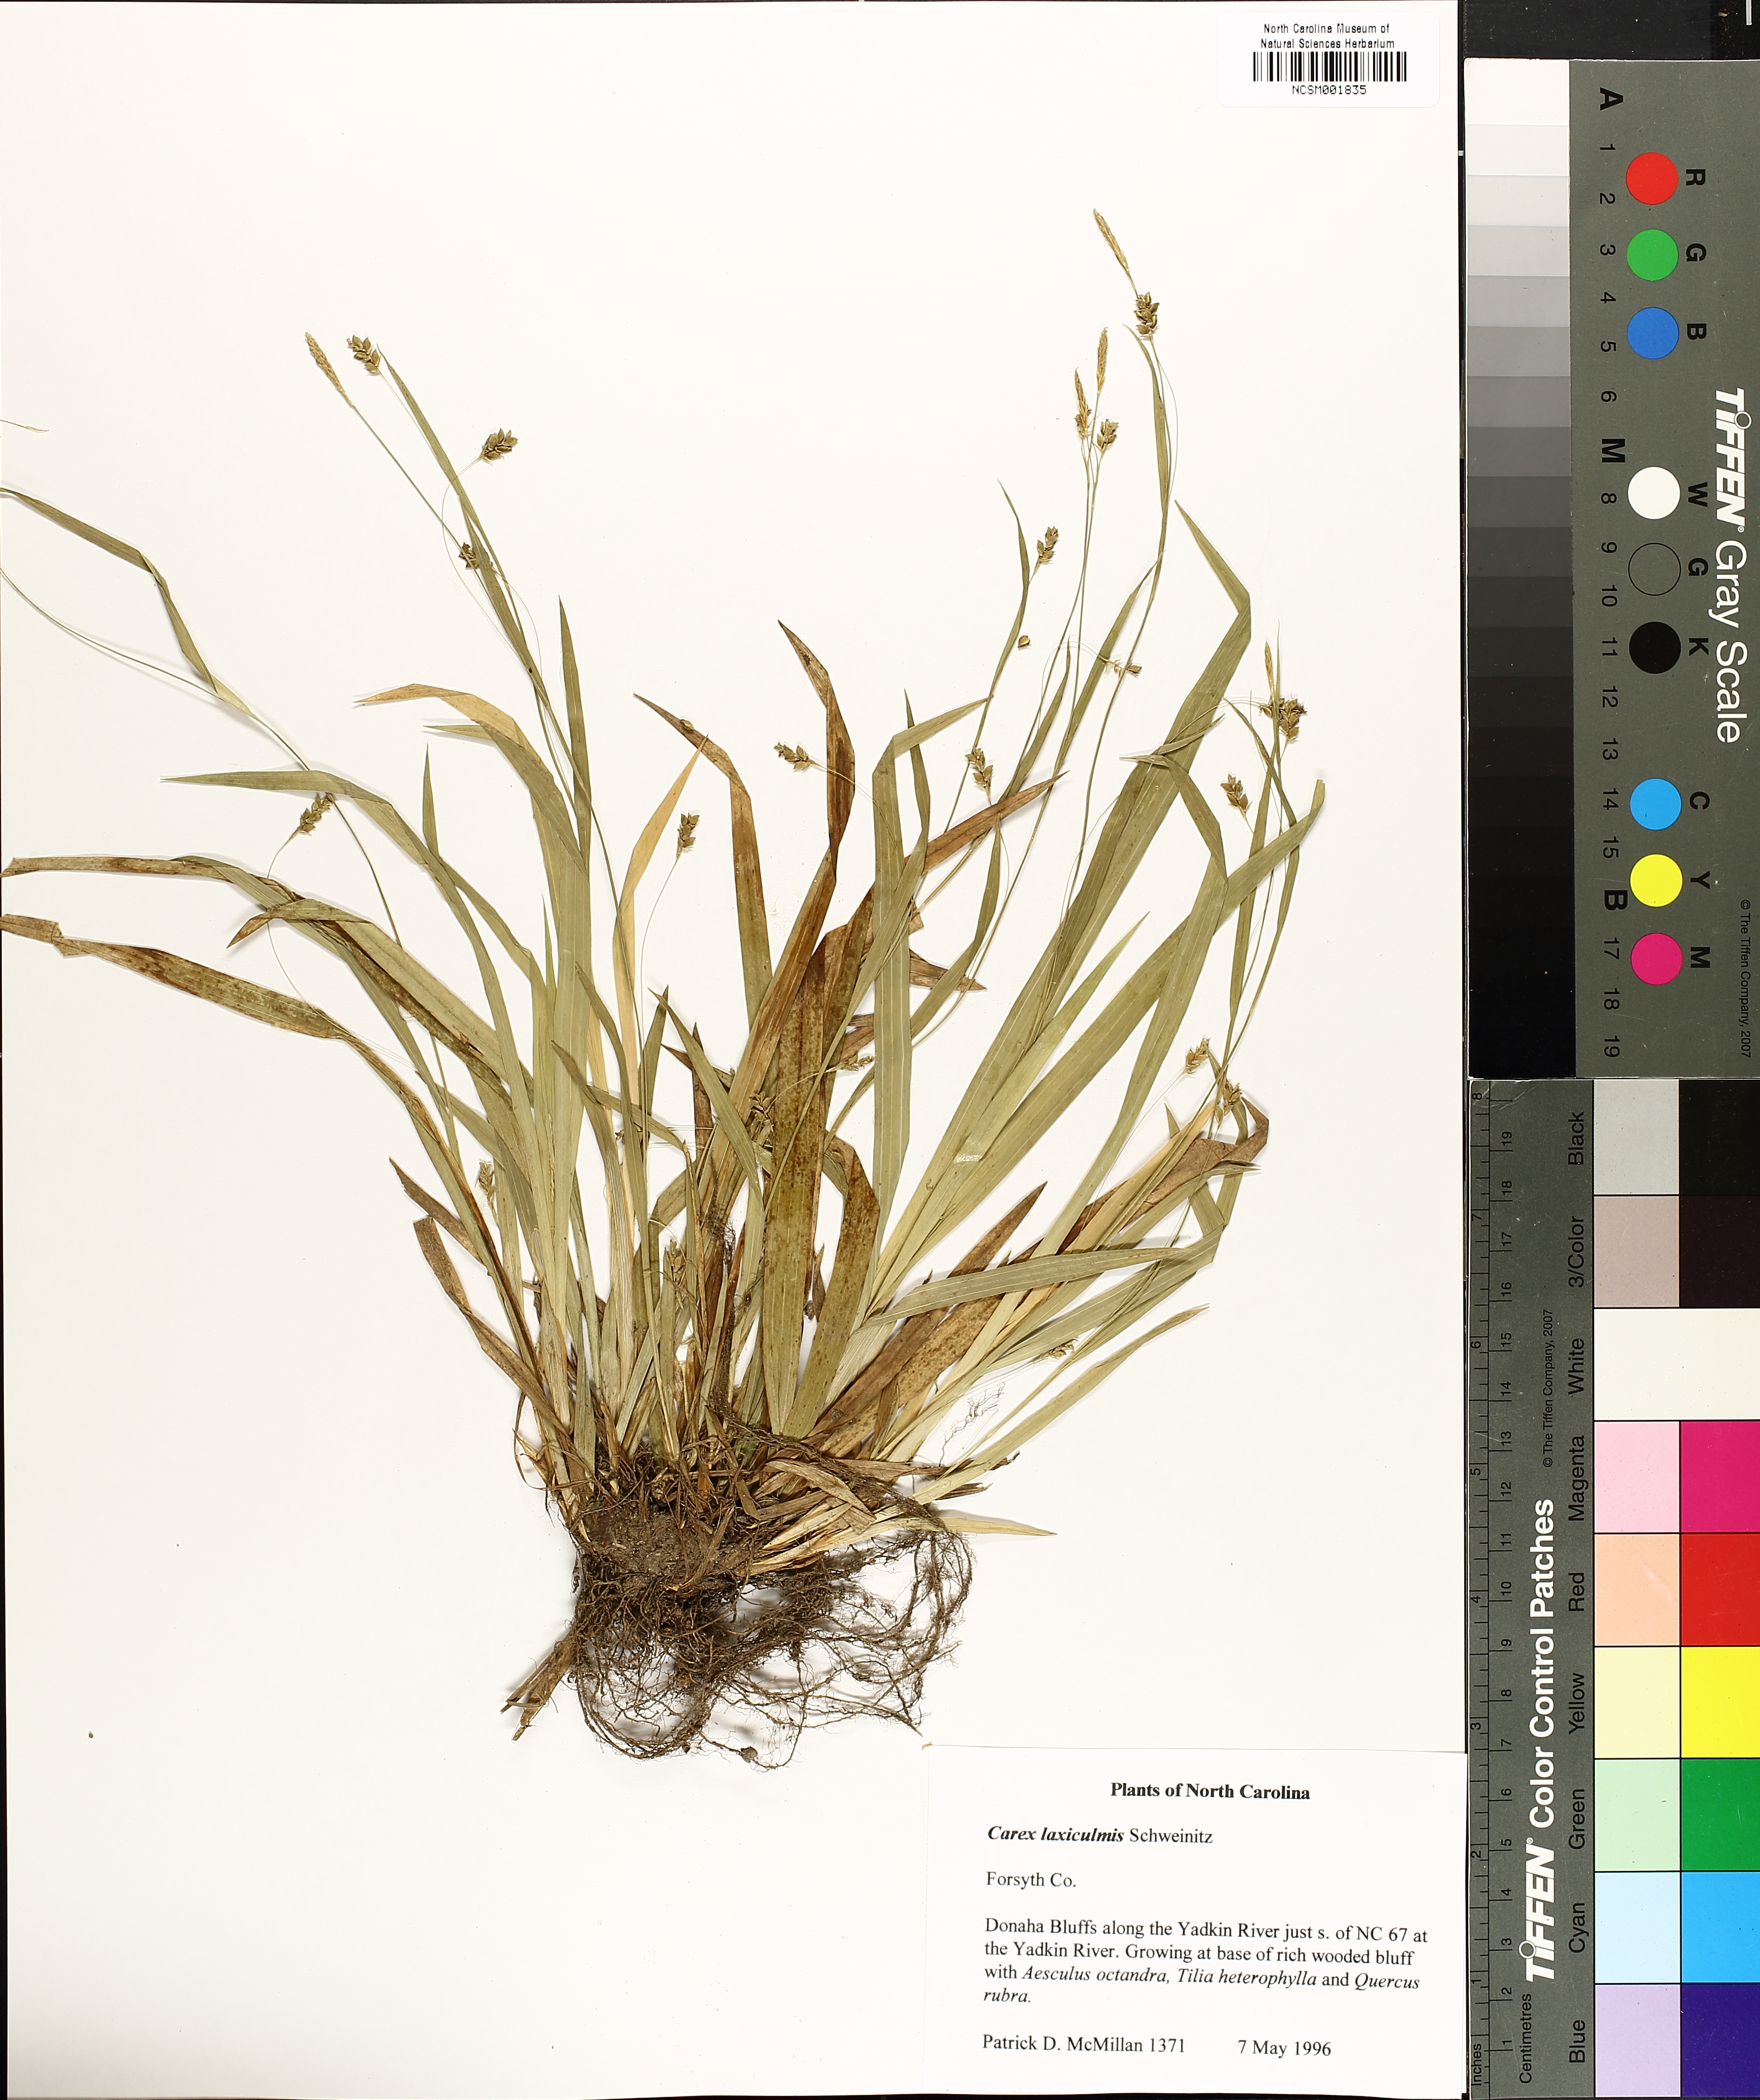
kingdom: Plantae
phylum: Tracheophyta
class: Liliopsida
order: Poales
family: Cyperaceae
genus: Carex
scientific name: Carex laxiculmis
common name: Spreading sedge
